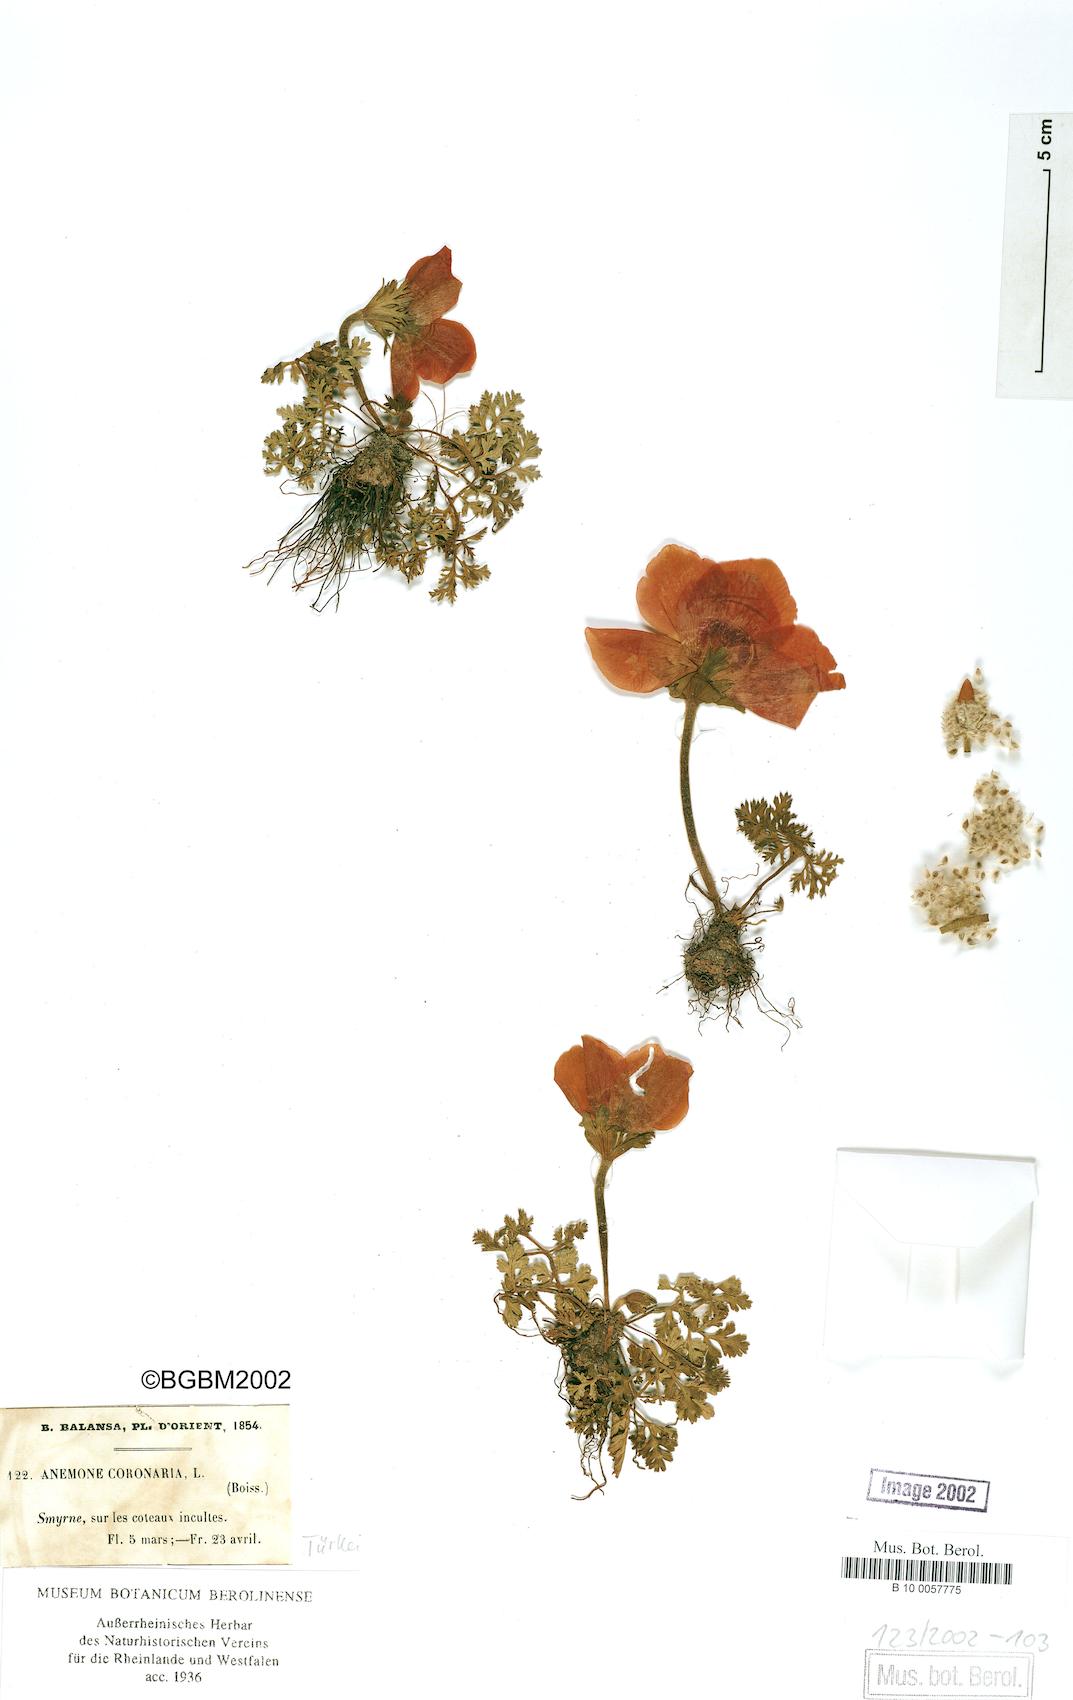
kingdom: Plantae
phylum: Tracheophyta
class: Magnoliopsida
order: Ranunculales
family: Ranunculaceae
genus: Anemone
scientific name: Anemone coronaria
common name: Poppy anemone
